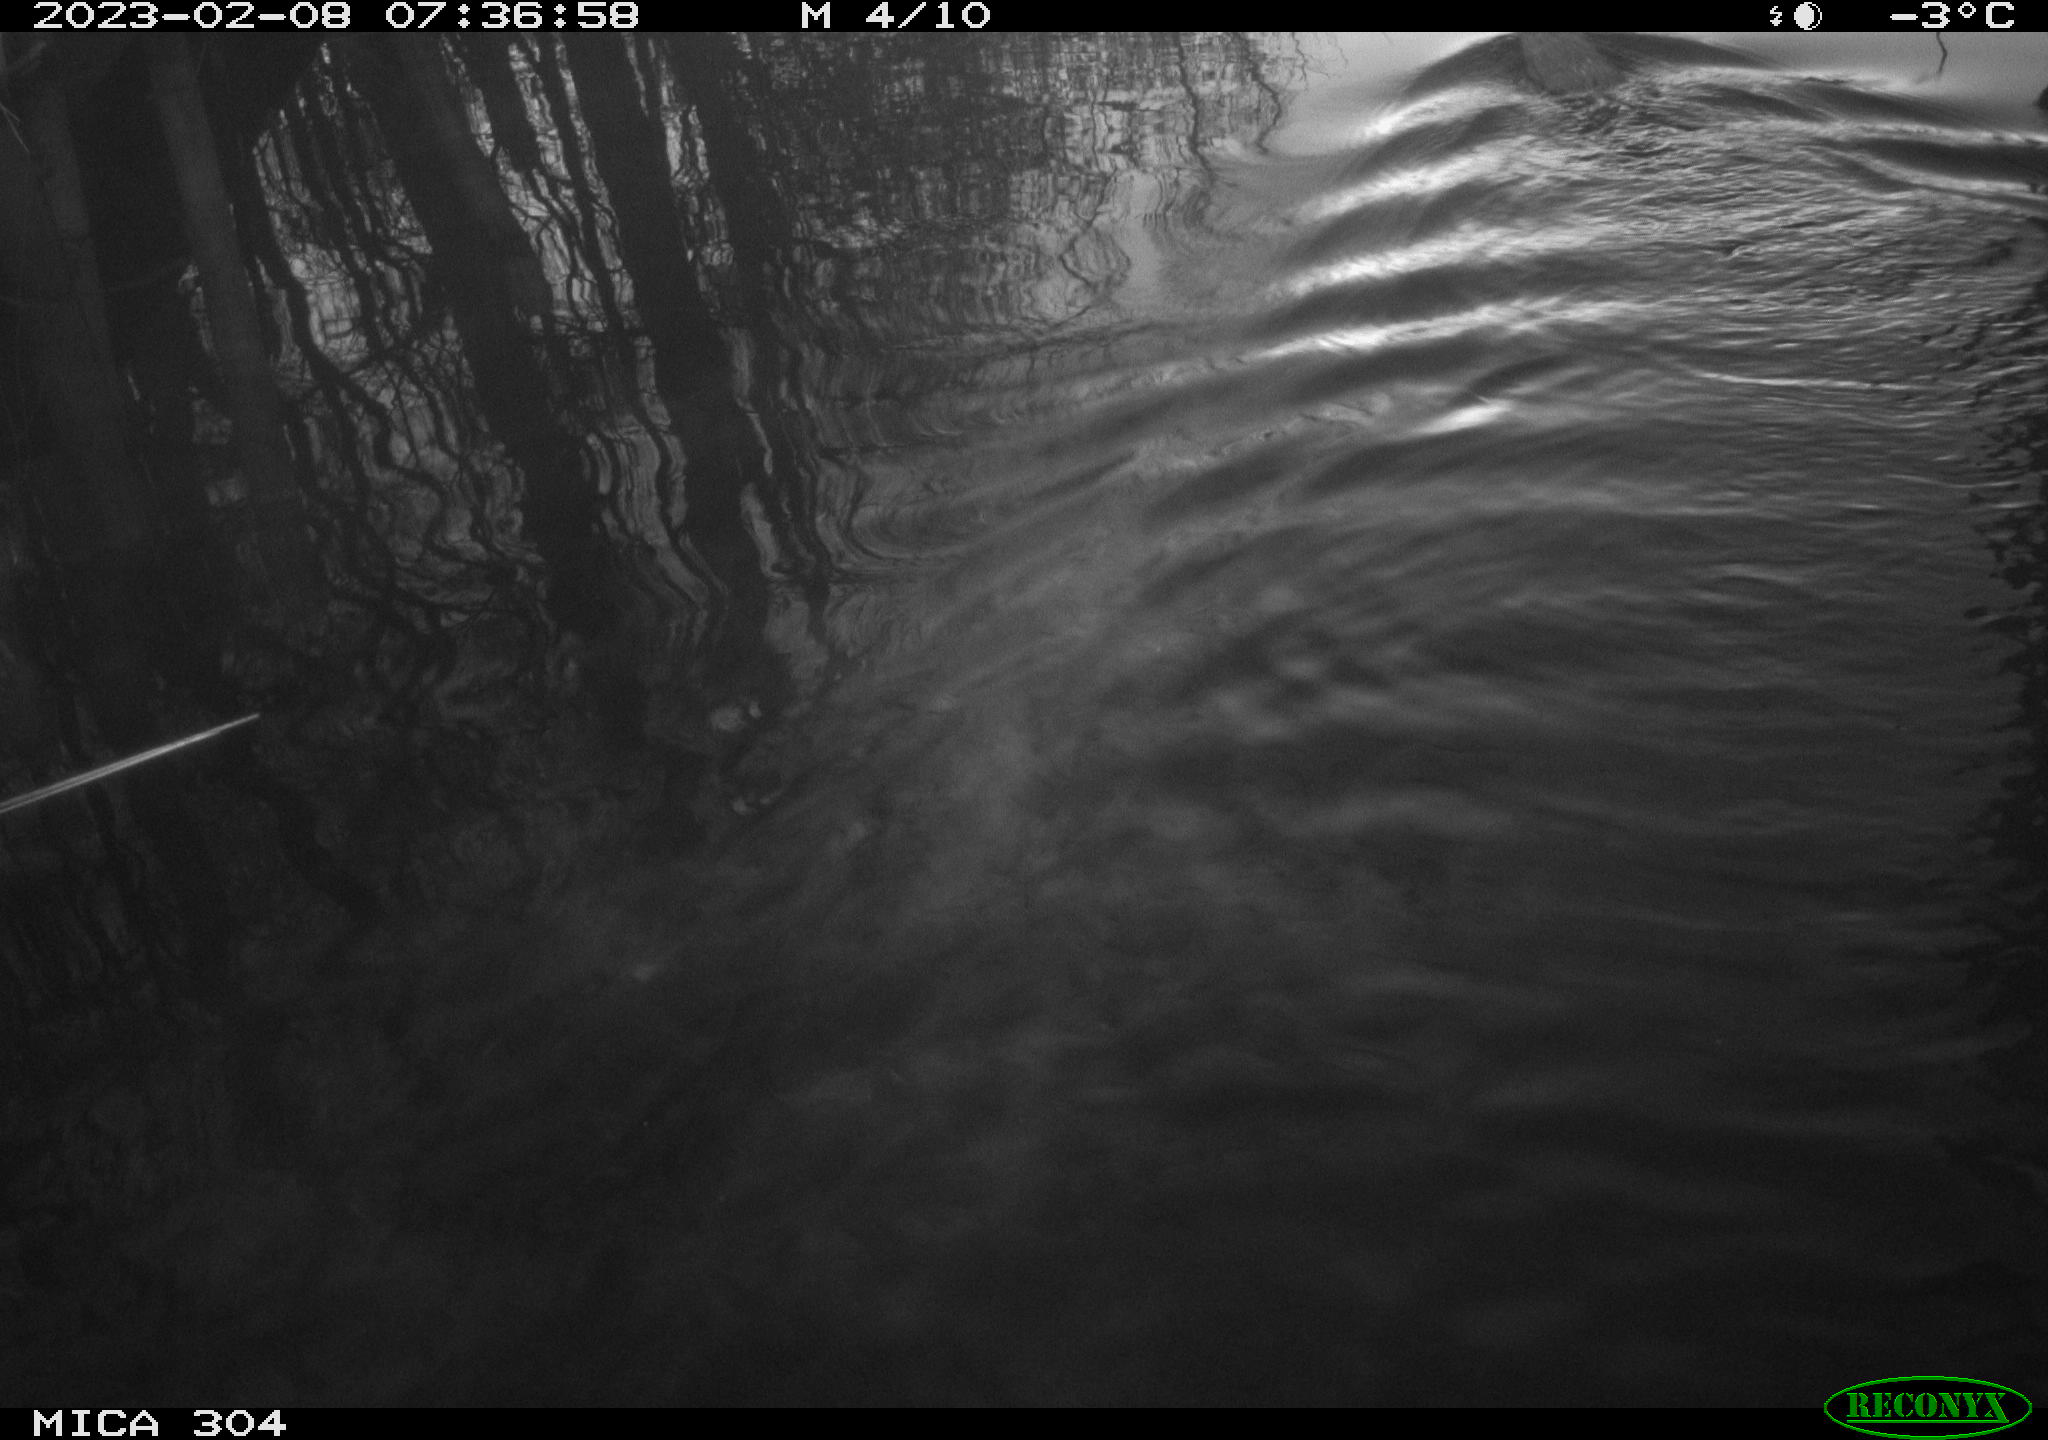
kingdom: Animalia
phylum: Chordata
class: Mammalia
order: Rodentia
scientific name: Rodentia
